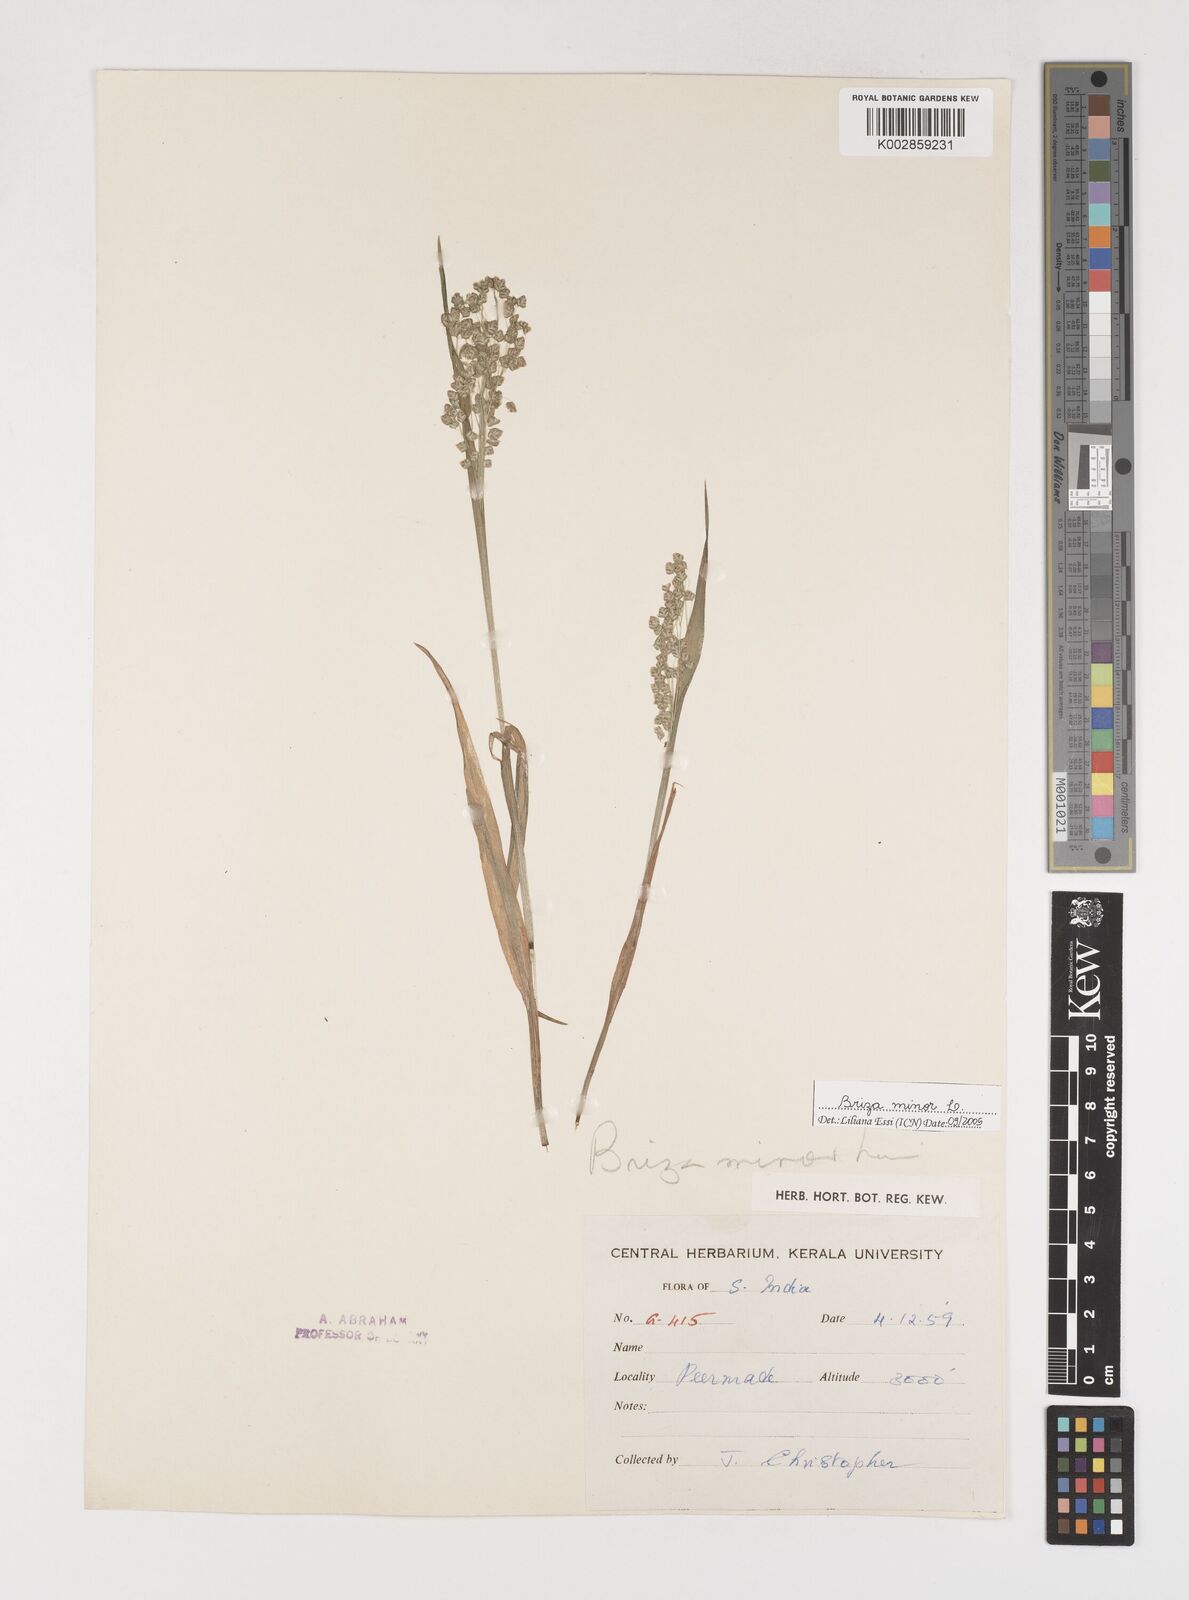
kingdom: Plantae
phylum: Tracheophyta
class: Liliopsida
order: Poales
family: Poaceae
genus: Briza
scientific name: Briza minor
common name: Lesser quaking-grass
